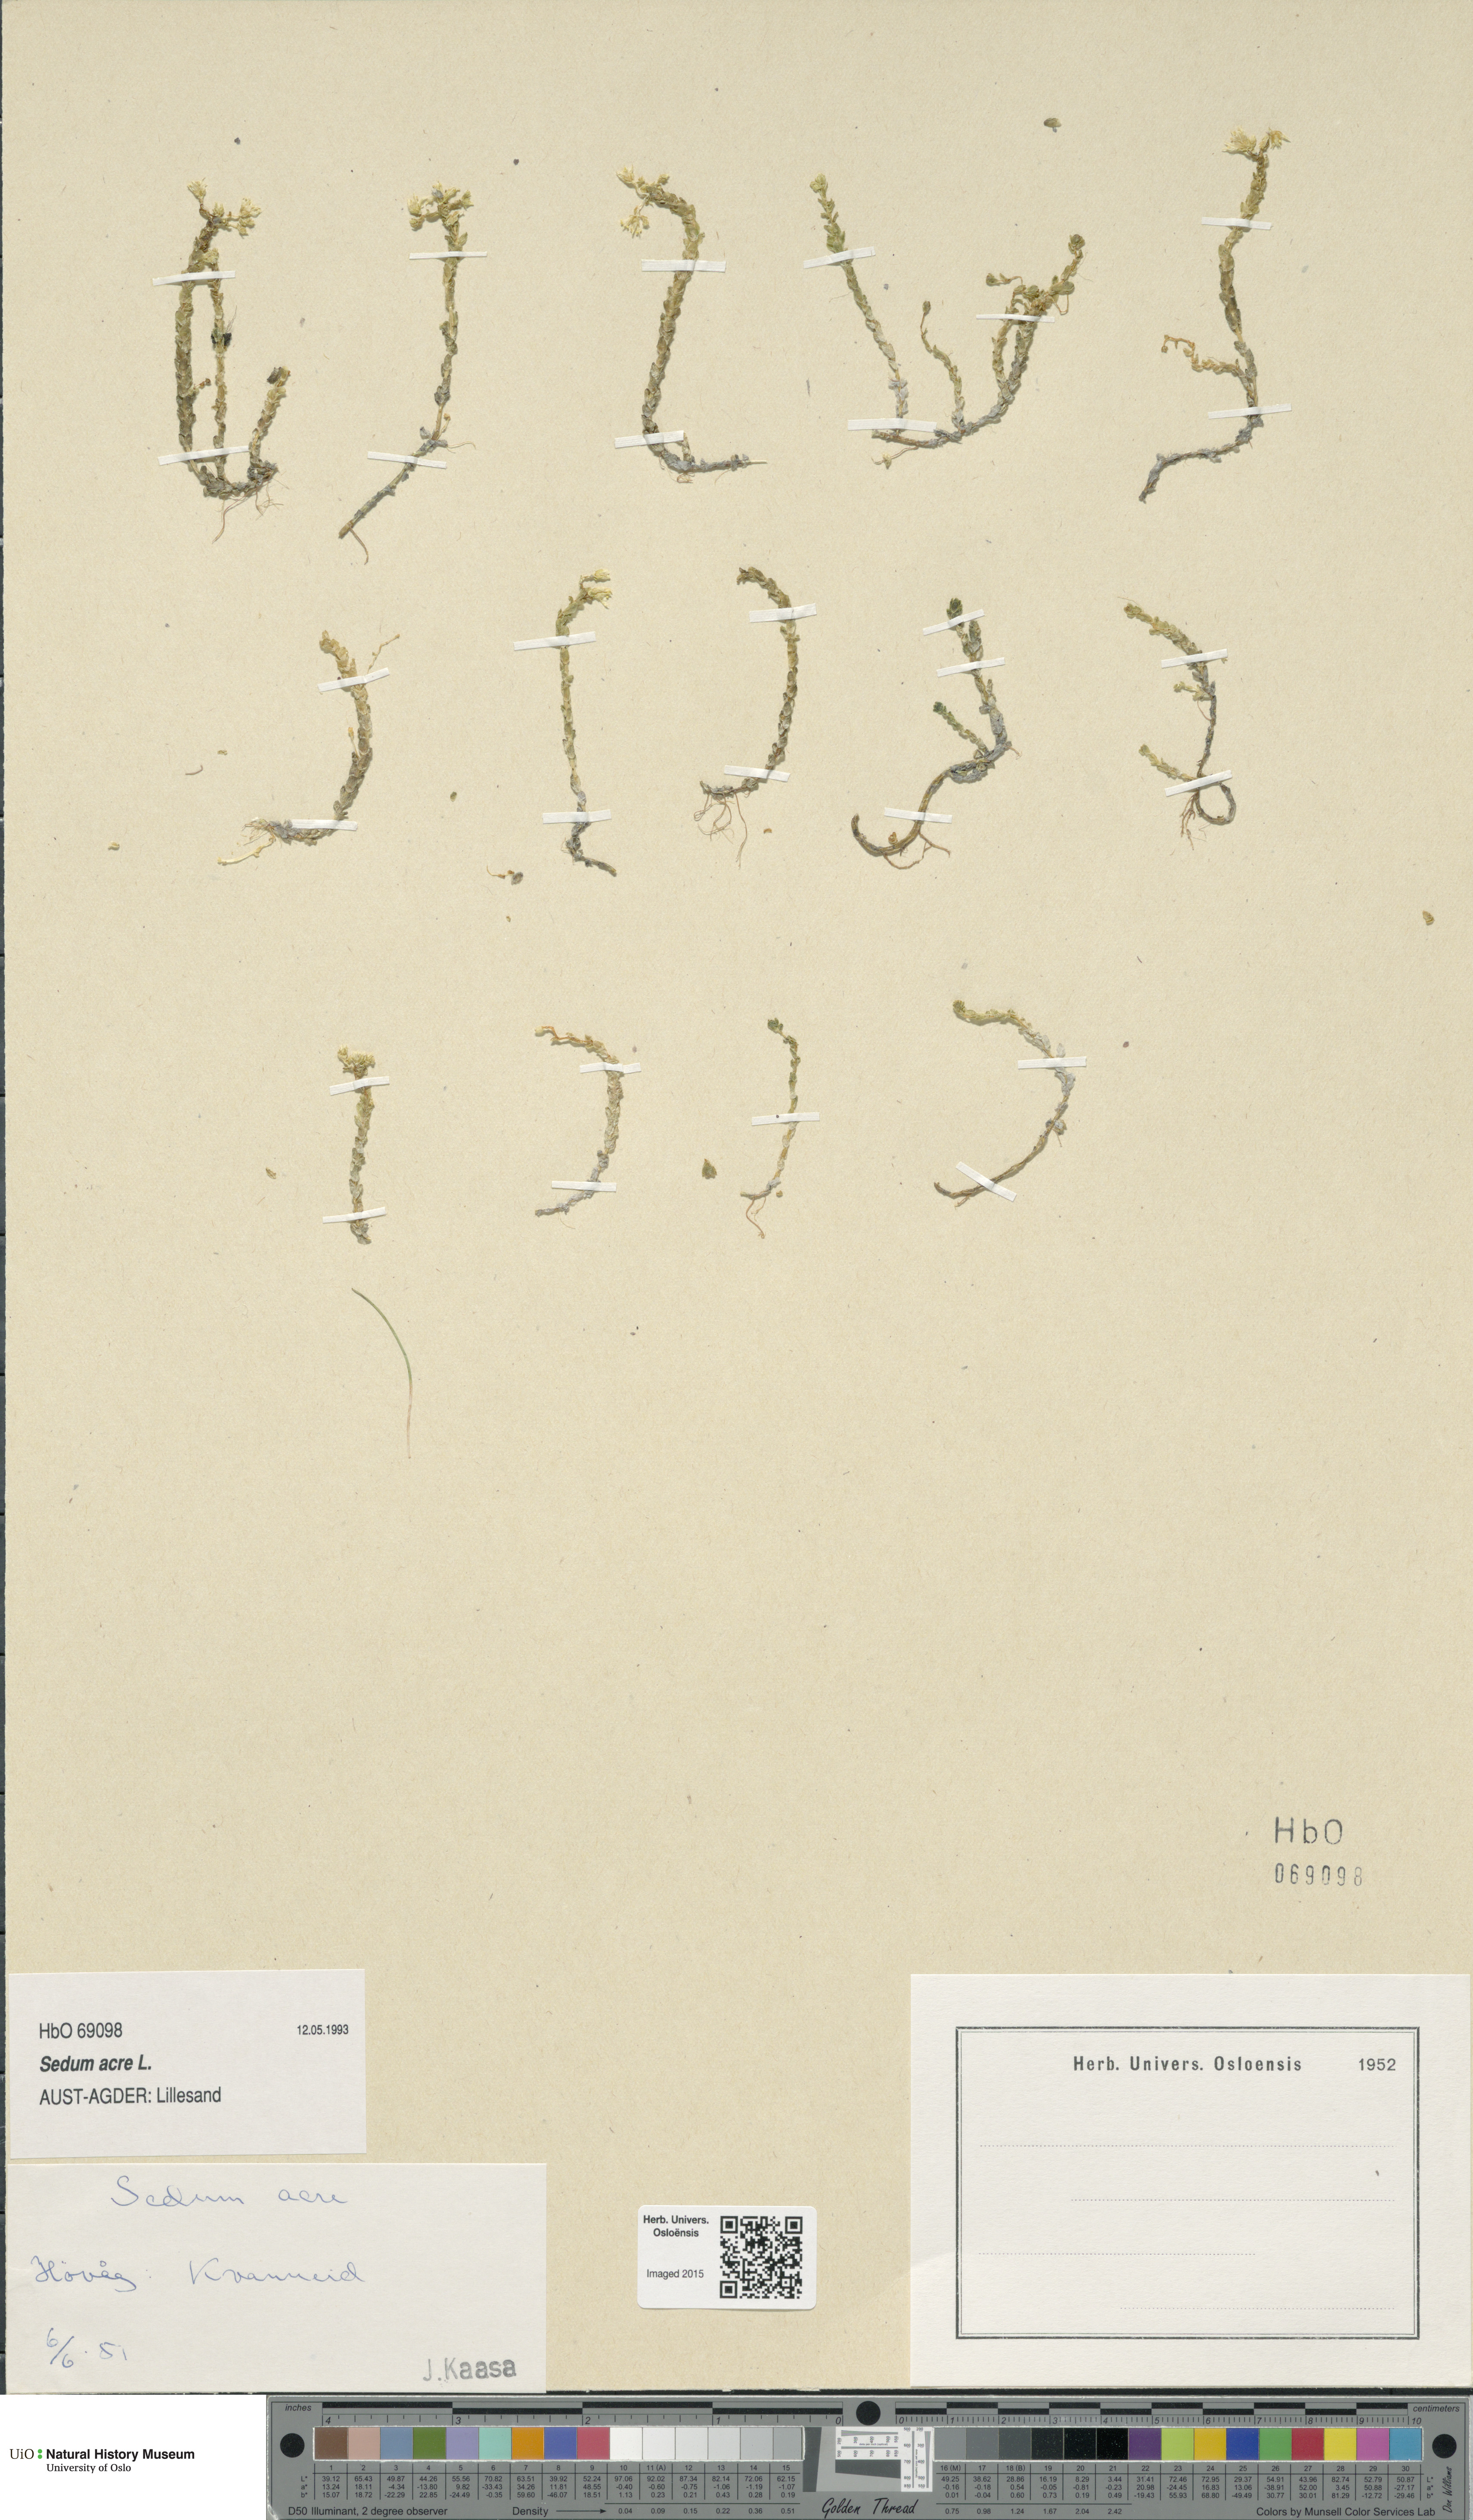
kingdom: Plantae
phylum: Tracheophyta
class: Magnoliopsida
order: Saxifragales
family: Crassulaceae
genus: Sedum
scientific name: Sedum acre
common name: Biting stonecrop
